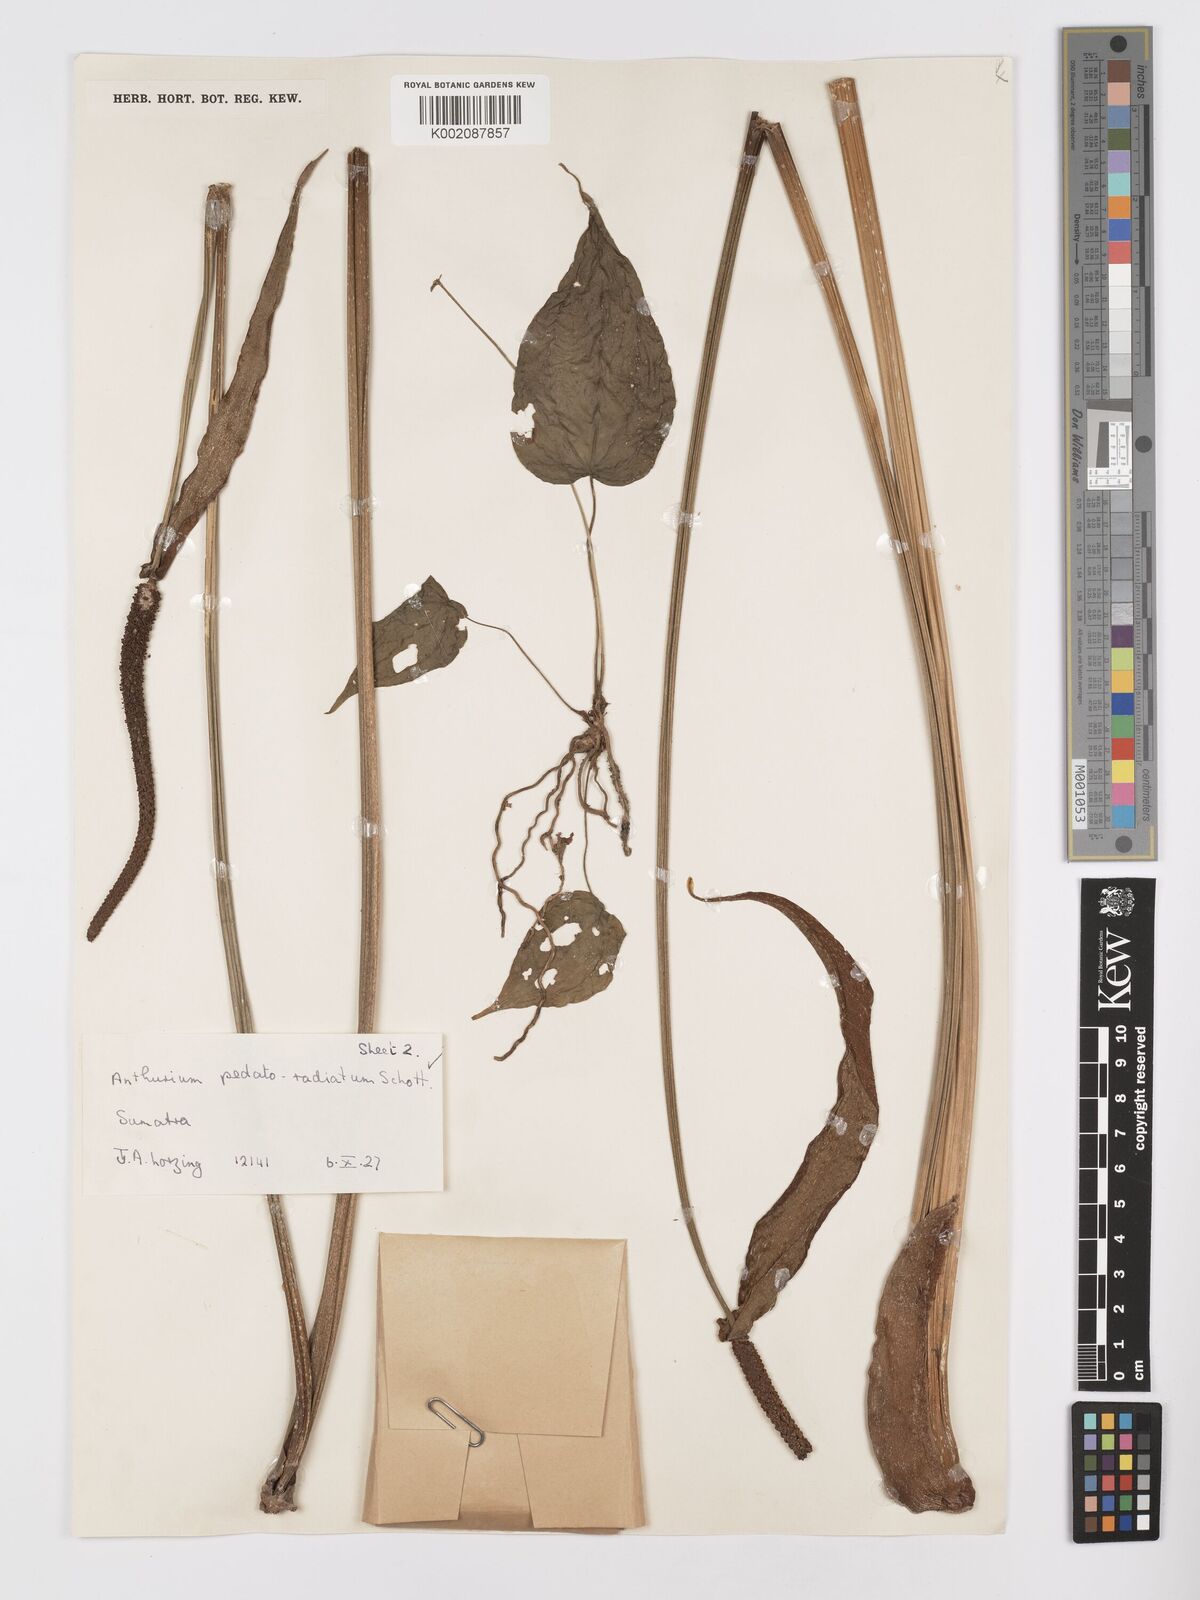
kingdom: Plantae
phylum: Tracheophyta
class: Liliopsida
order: Alismatales
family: Araceae
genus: Anthurium
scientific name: Anthurium pedatoradiatum
